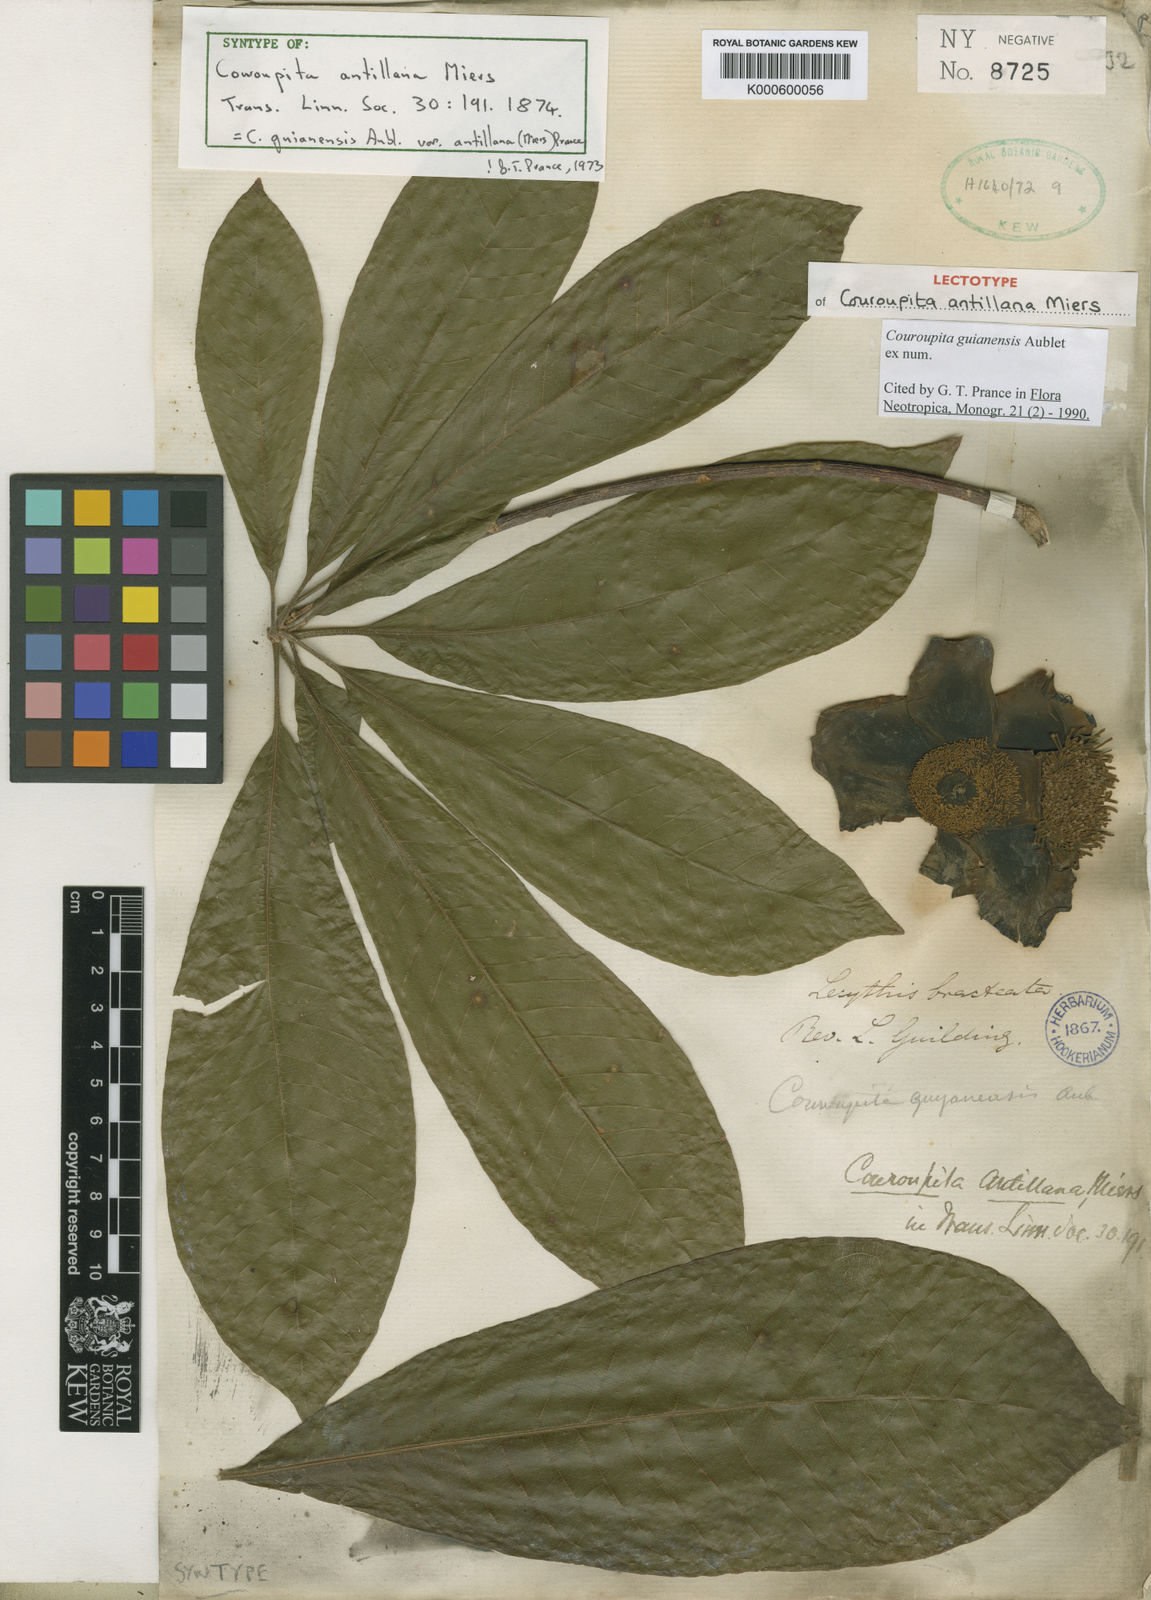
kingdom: Plantae
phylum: Tracheophyta
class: Magnoliopsida
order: Ericales
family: Lecythidaceae
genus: Couroupita
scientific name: Couroupita guianensis
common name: Cannonball tree
